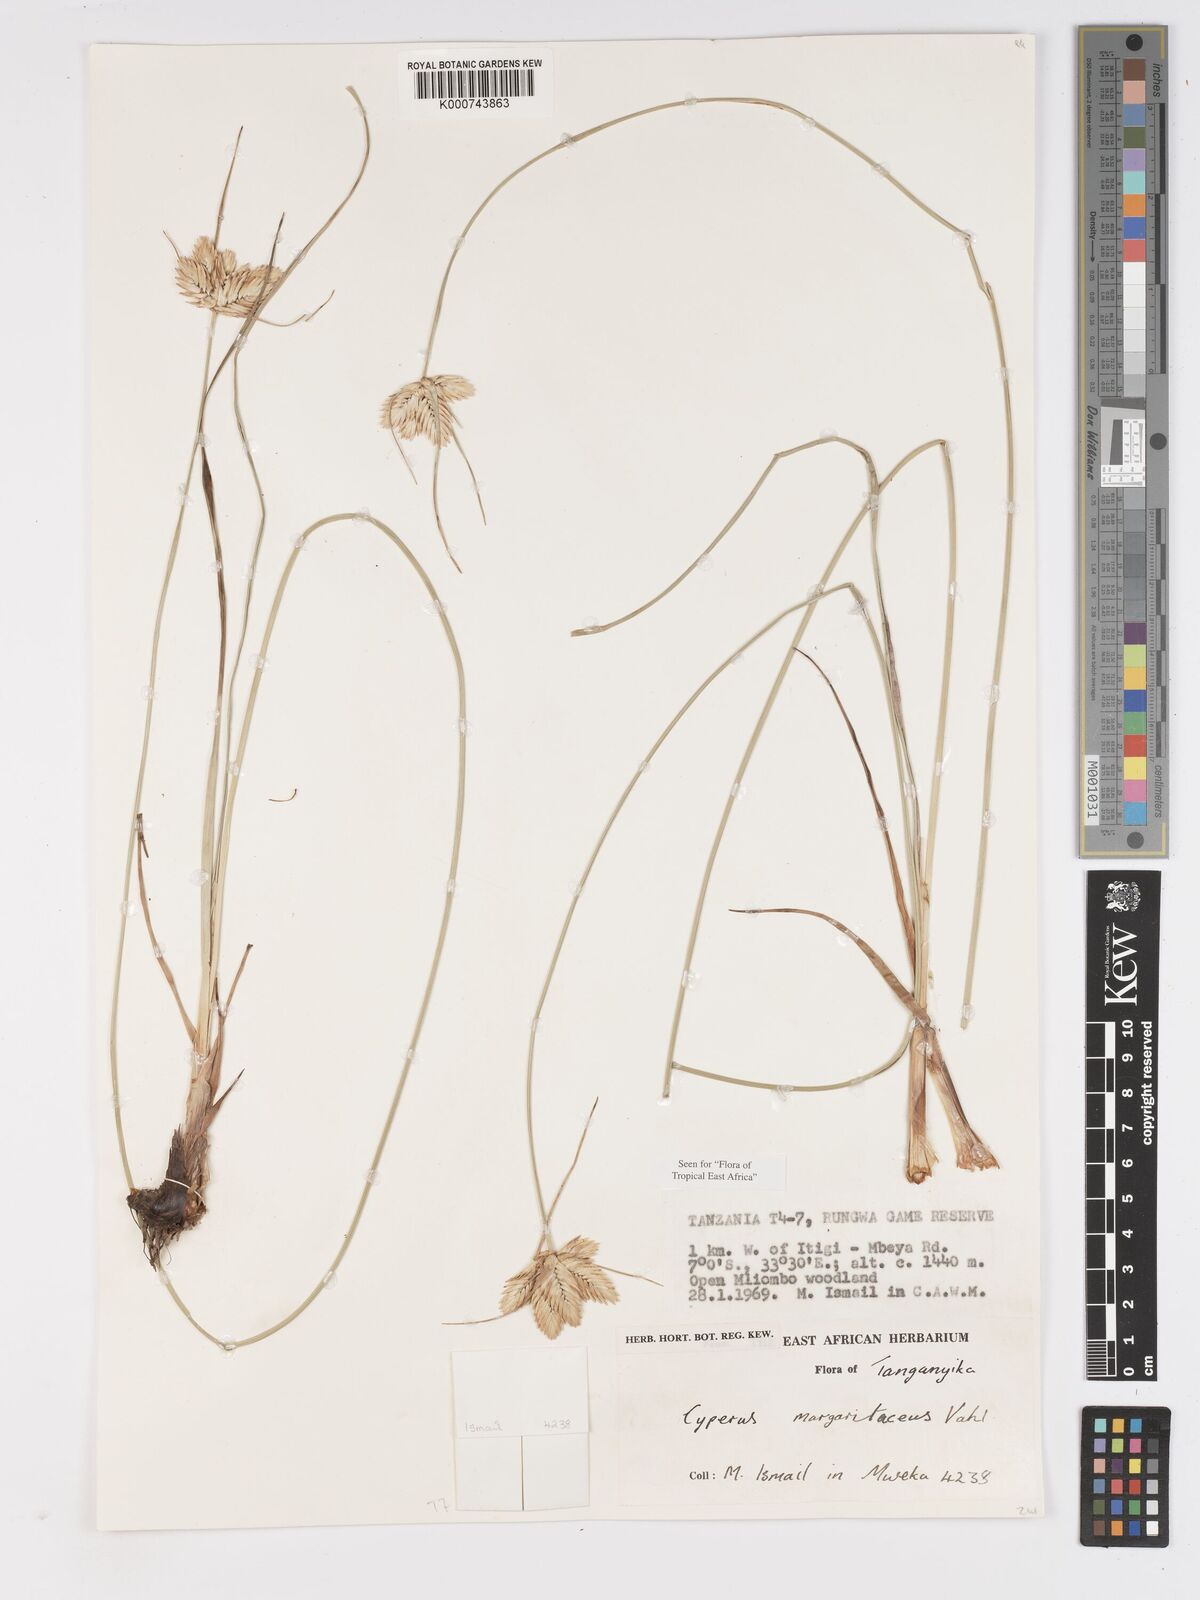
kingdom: Plantae
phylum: Tracheophyta
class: Liliopsida
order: Poales
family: Cyperaceae
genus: Cyperus
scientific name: Cyperus margaritaceus
